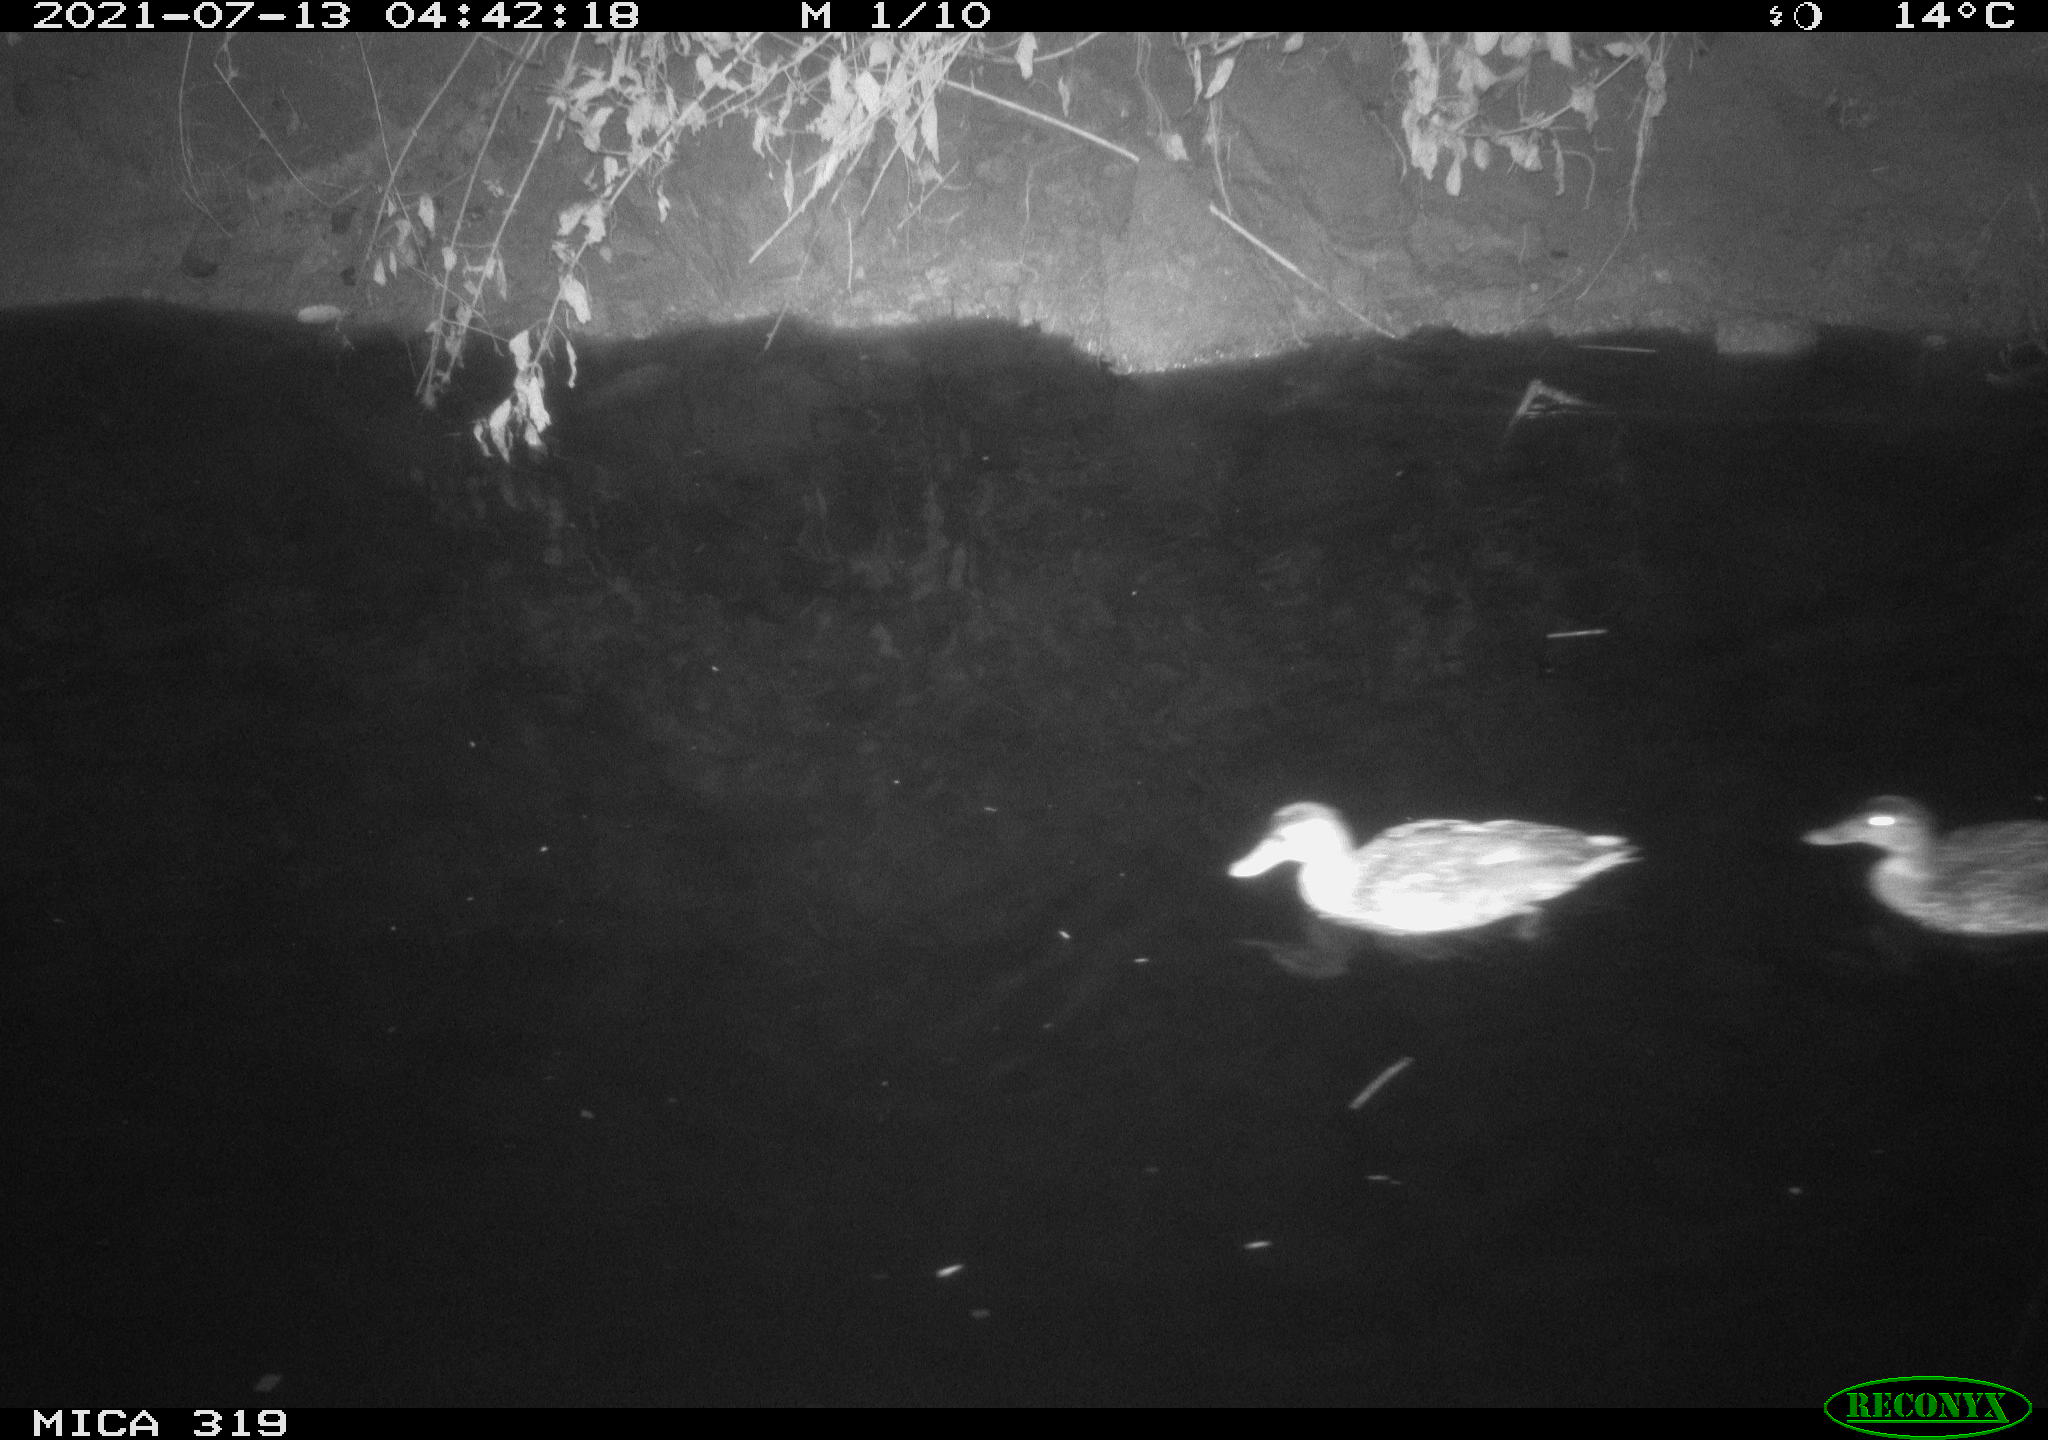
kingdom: Animalia
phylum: Chordata
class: Aves
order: Anseriformes
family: Anatidae
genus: Anas
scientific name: Anas platyrhynchos
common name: Mallard
